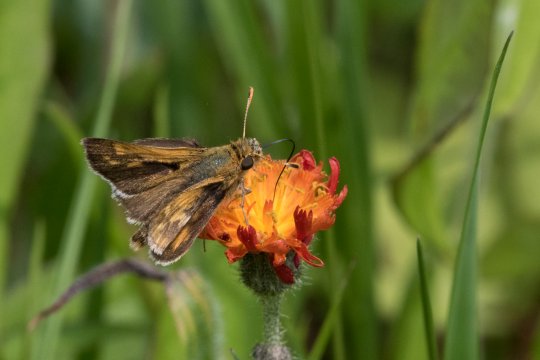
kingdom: Animalia
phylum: Arthropoda
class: Insecta
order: Lepidoptera
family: Hesperiidae
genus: Polites
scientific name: Polites coras
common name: Peck's Skipper
